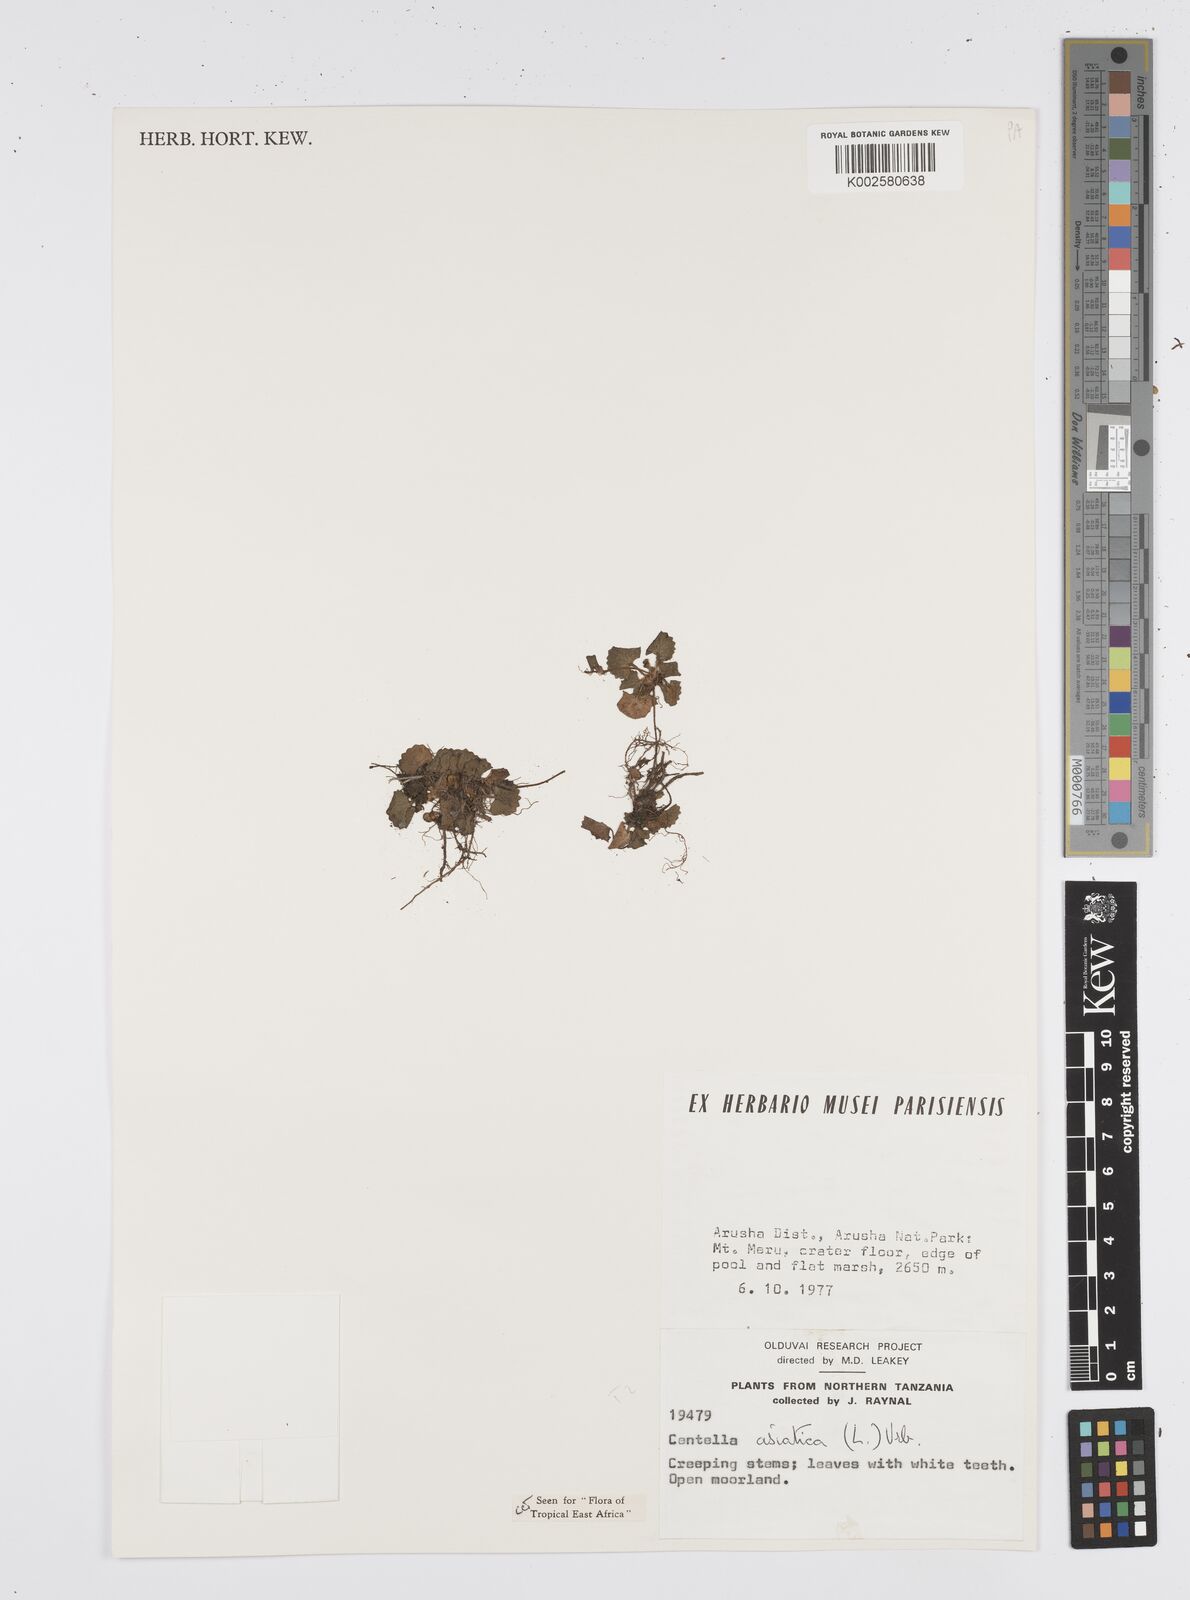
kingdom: Plantae
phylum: Tracheophyta
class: Magnoliopsida
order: Apiales
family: Apiaceae
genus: Centella
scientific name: Centella asiatica
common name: Spadeleaf
